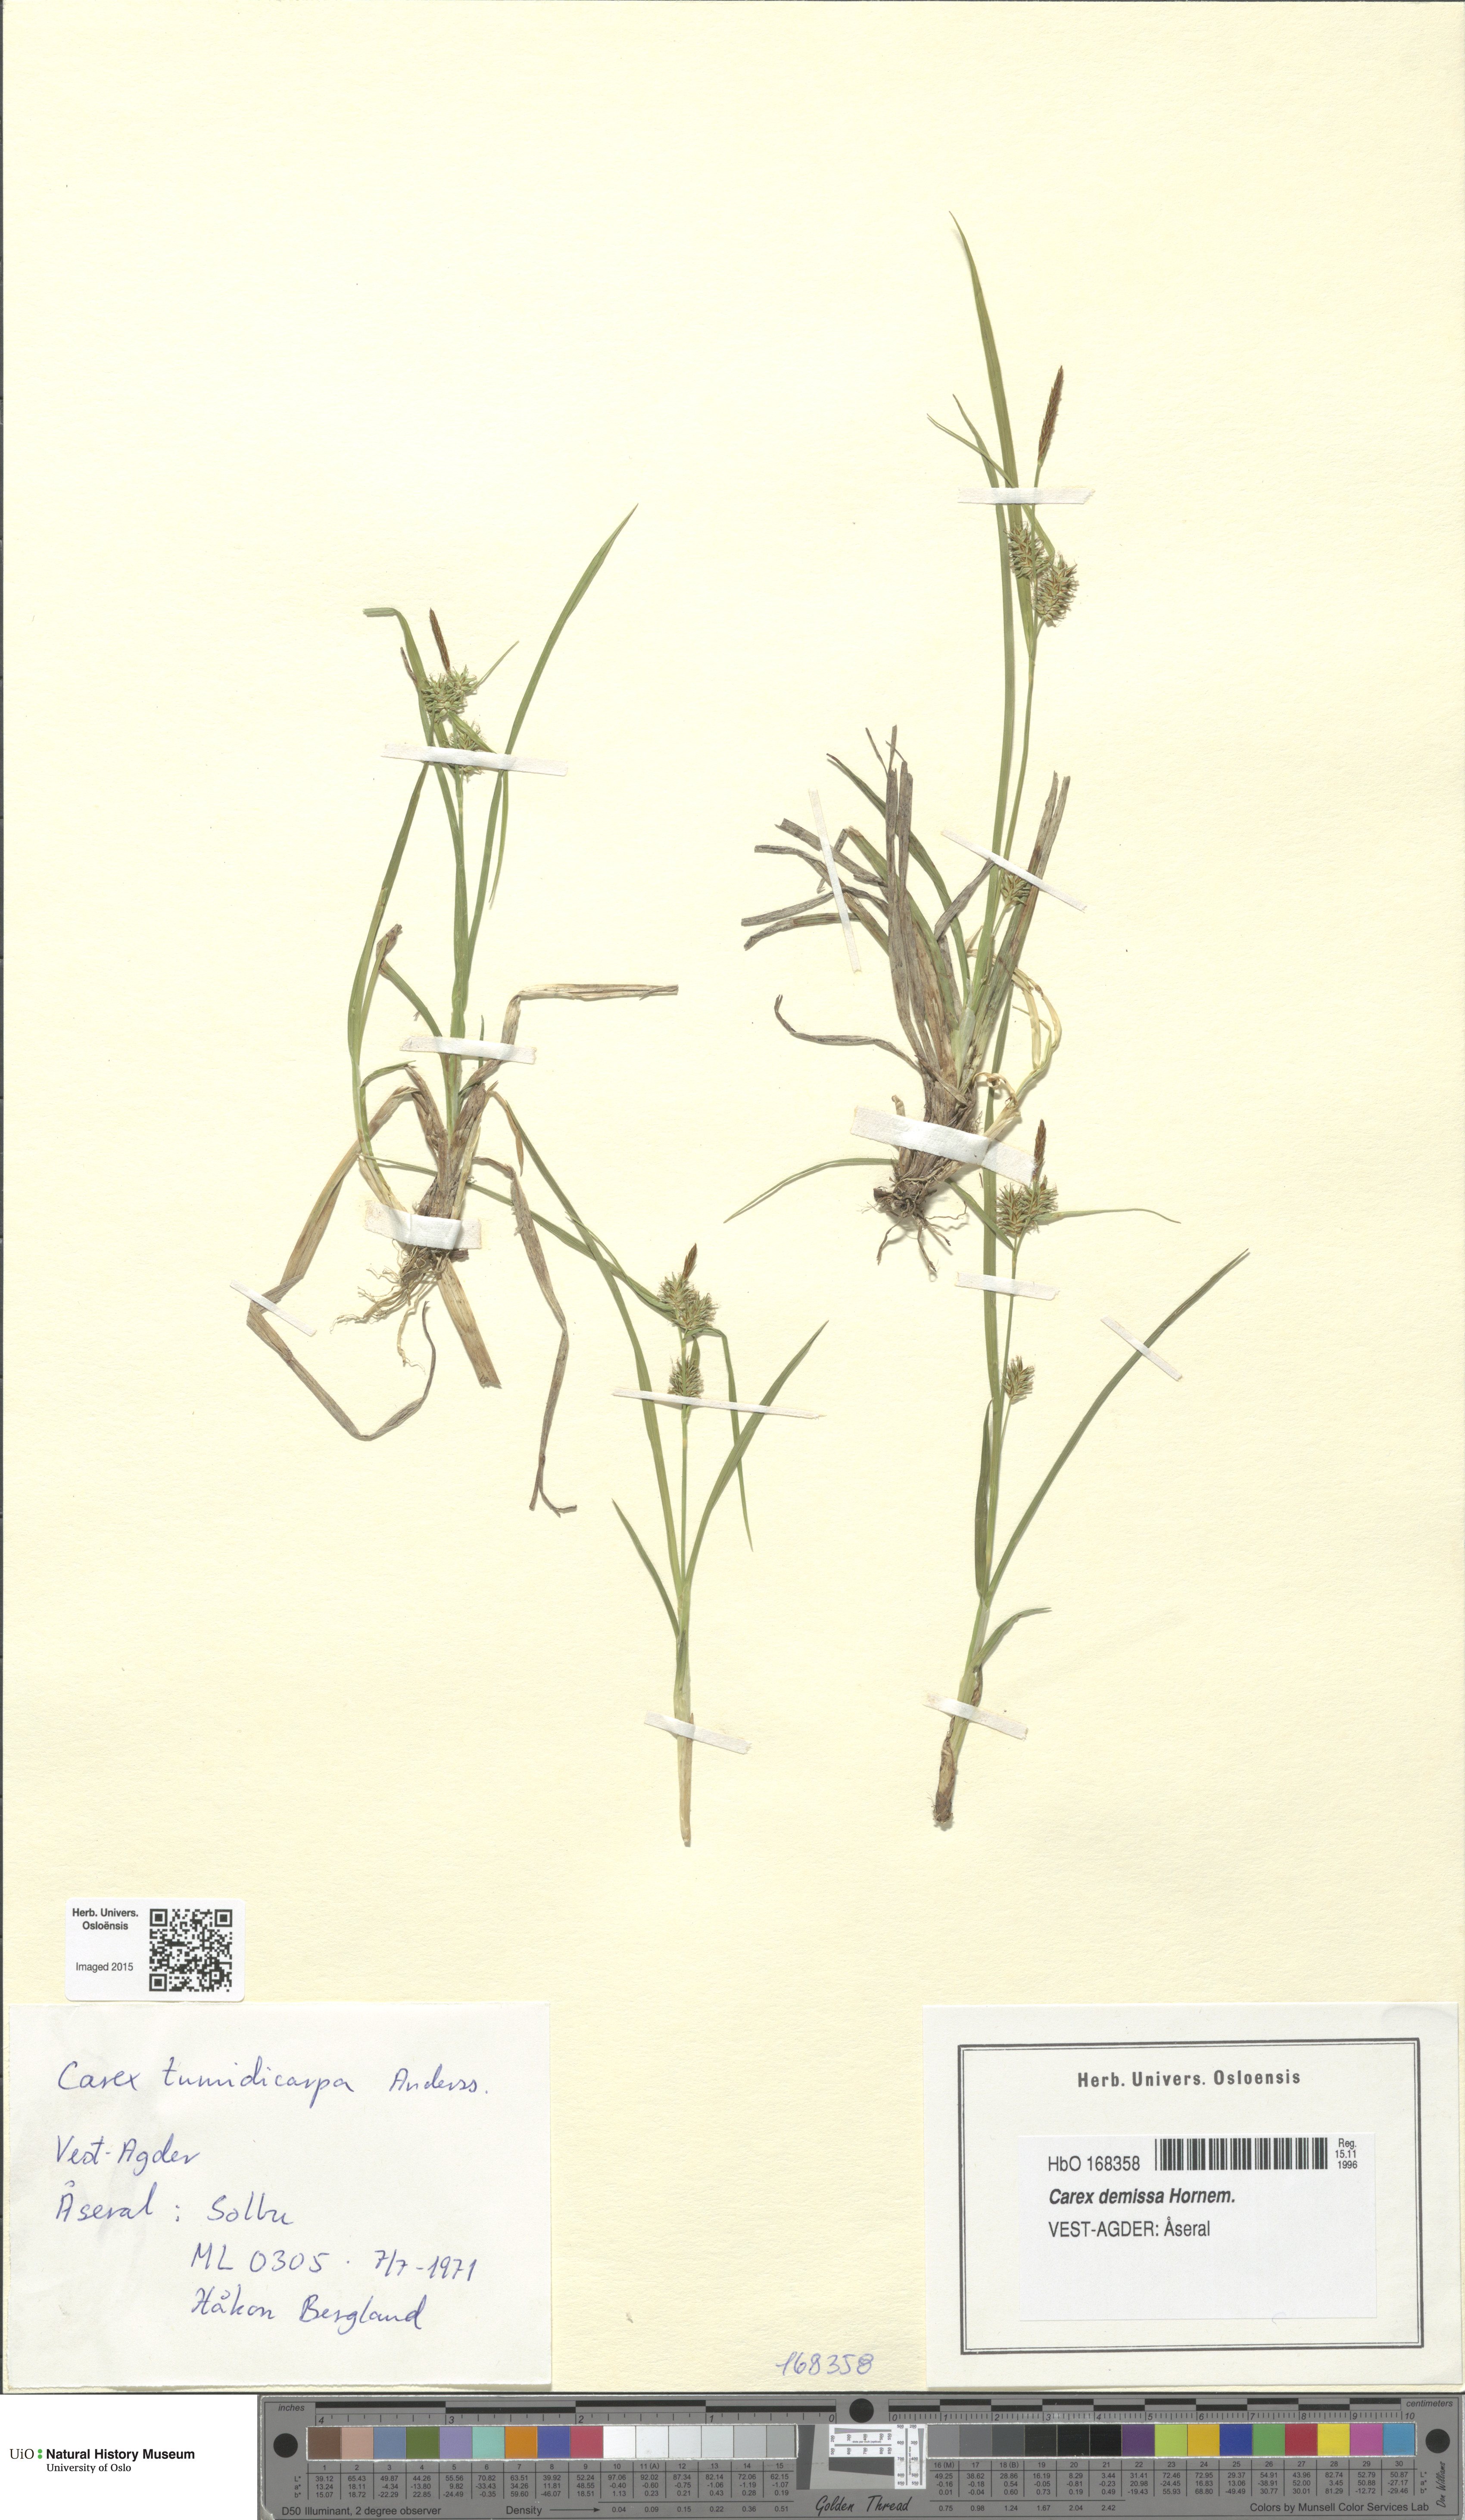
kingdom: Plantae
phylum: Tracheophyta
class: Liliopsida
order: Poales
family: Cyperaceae
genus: Carex
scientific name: Carex demissa
